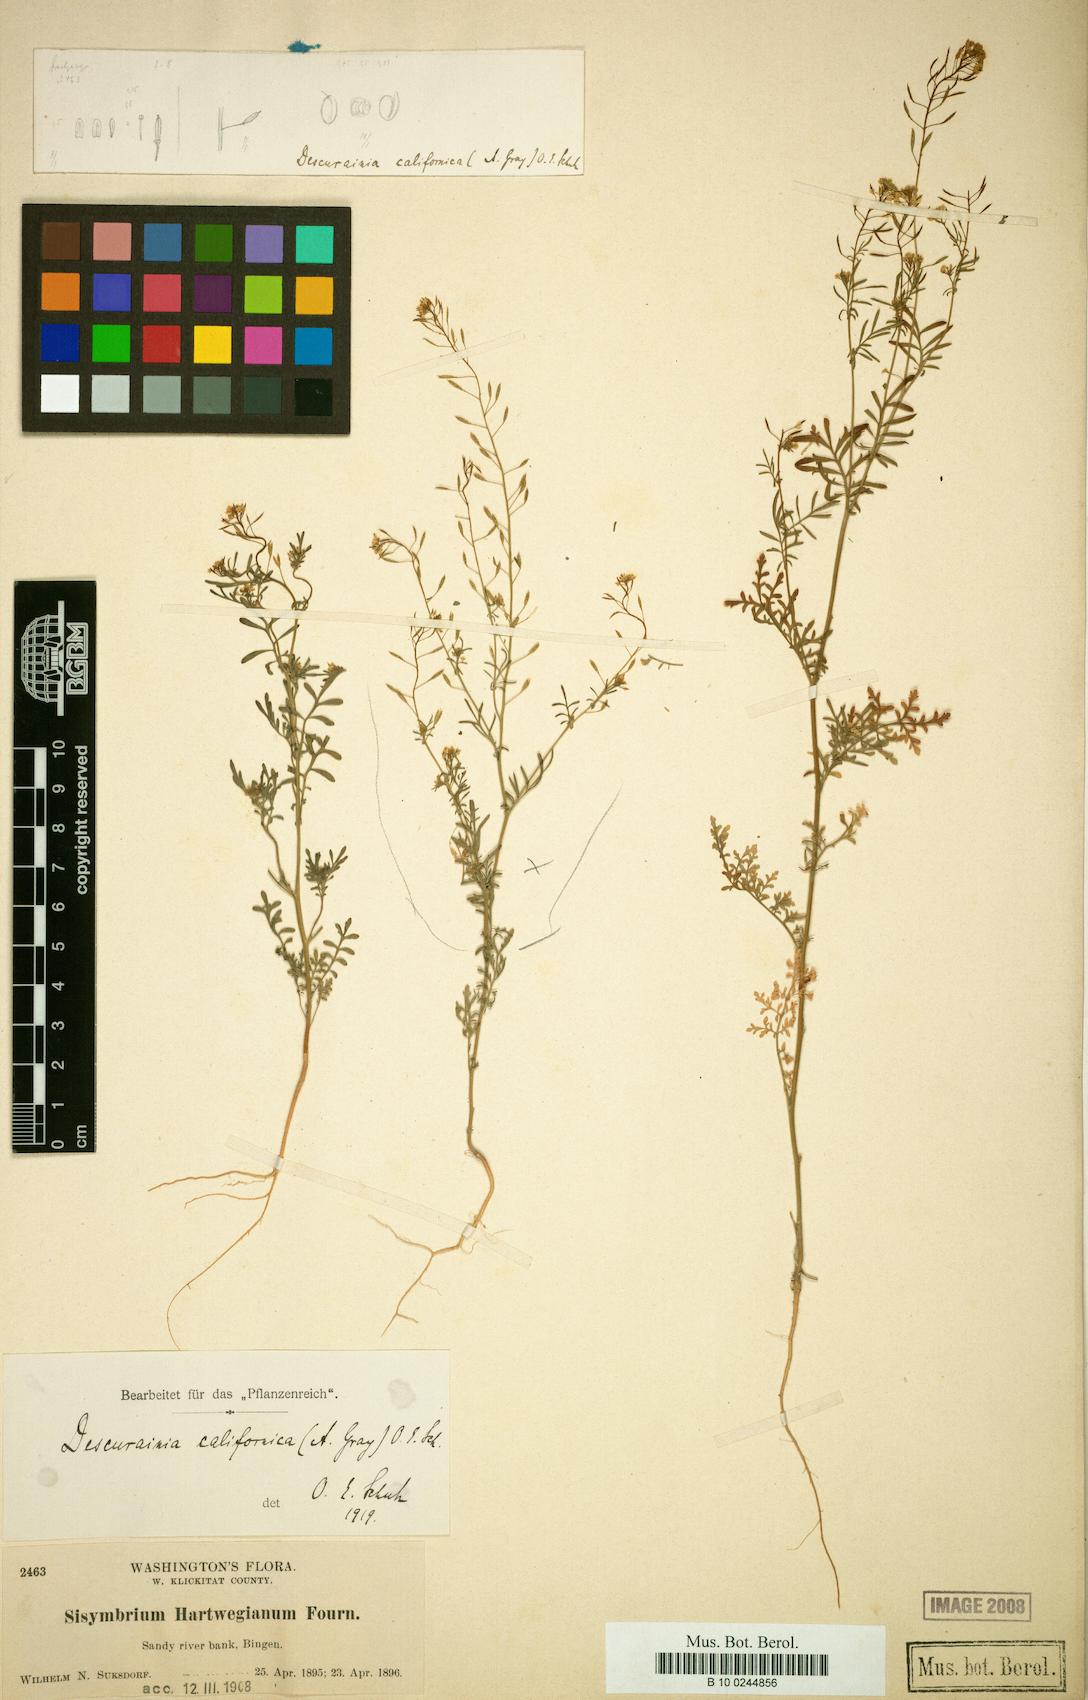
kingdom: Plantae
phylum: Tracheophyta
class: Magnoliopsida
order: Brassicales
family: Brassicaceae
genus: Descurainia
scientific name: Descurainia californica
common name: California tansy mustard
